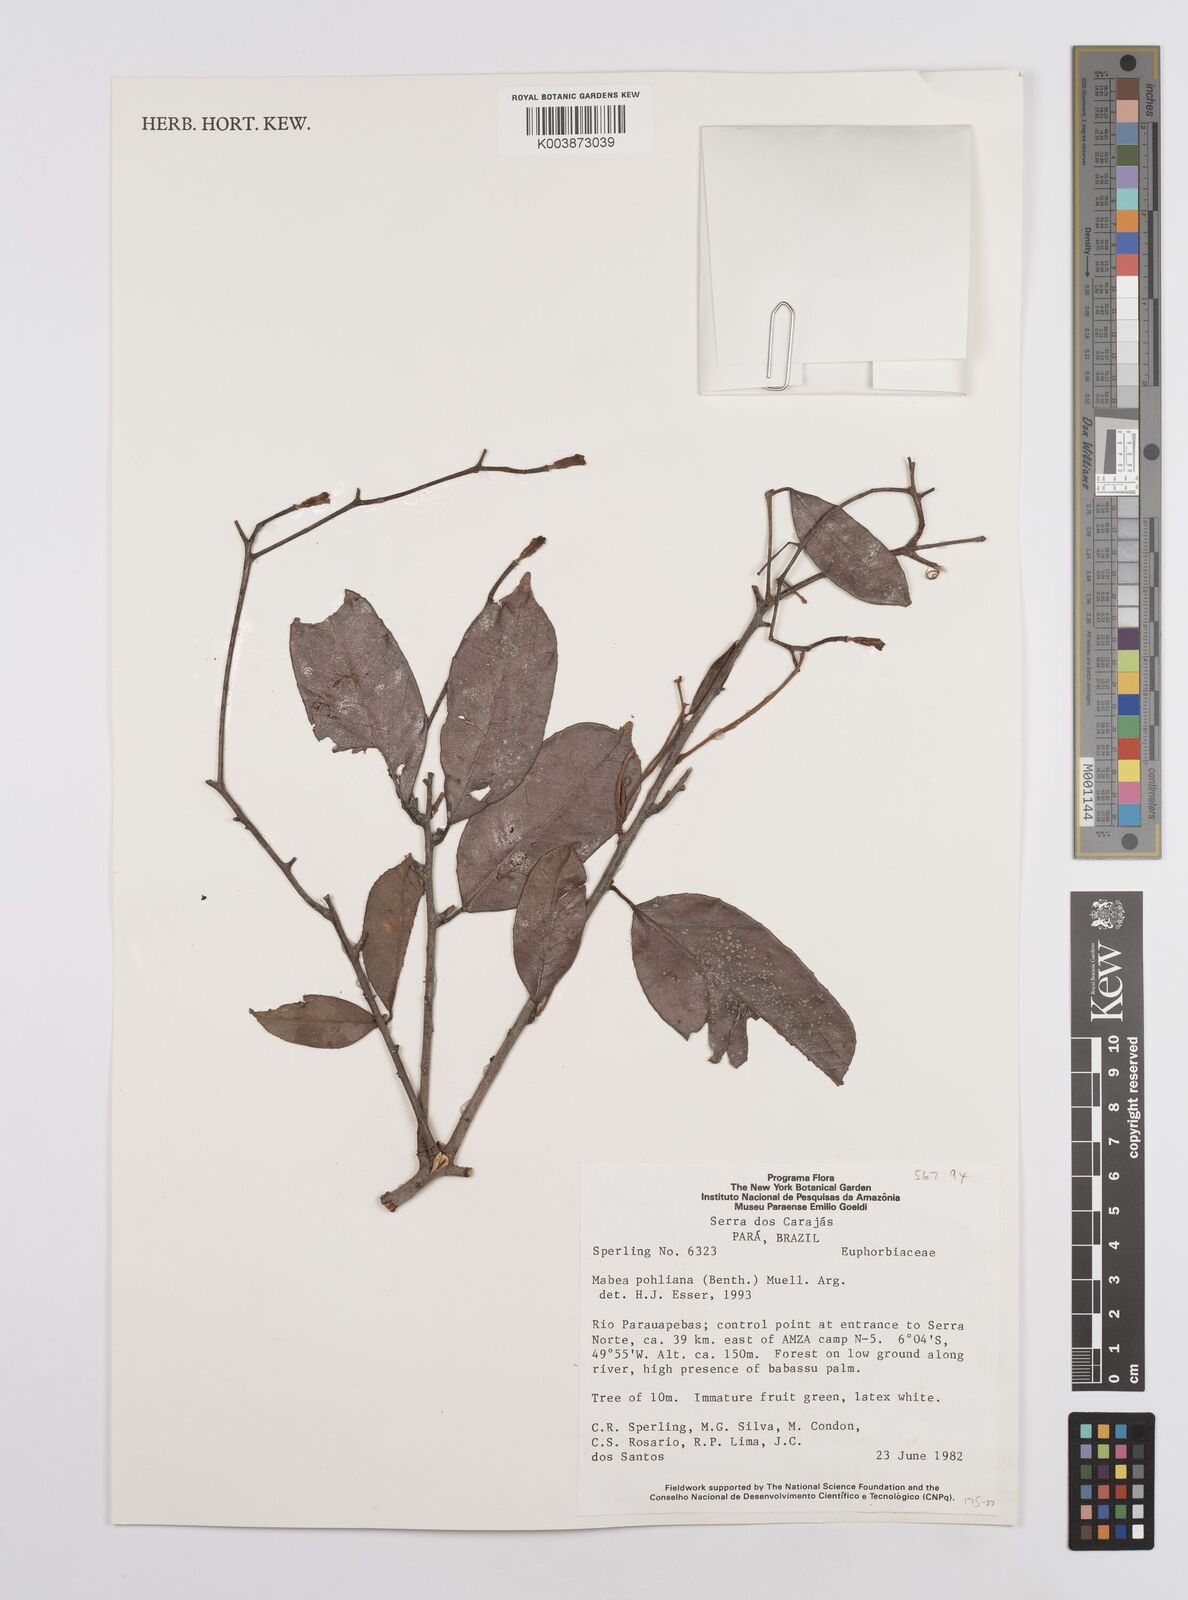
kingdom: Plantae
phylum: Tracheophyta
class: Magnoliopsida
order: Malpighiales
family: Euphorbiaceae
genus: Mabea
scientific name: Mabea pohliana
